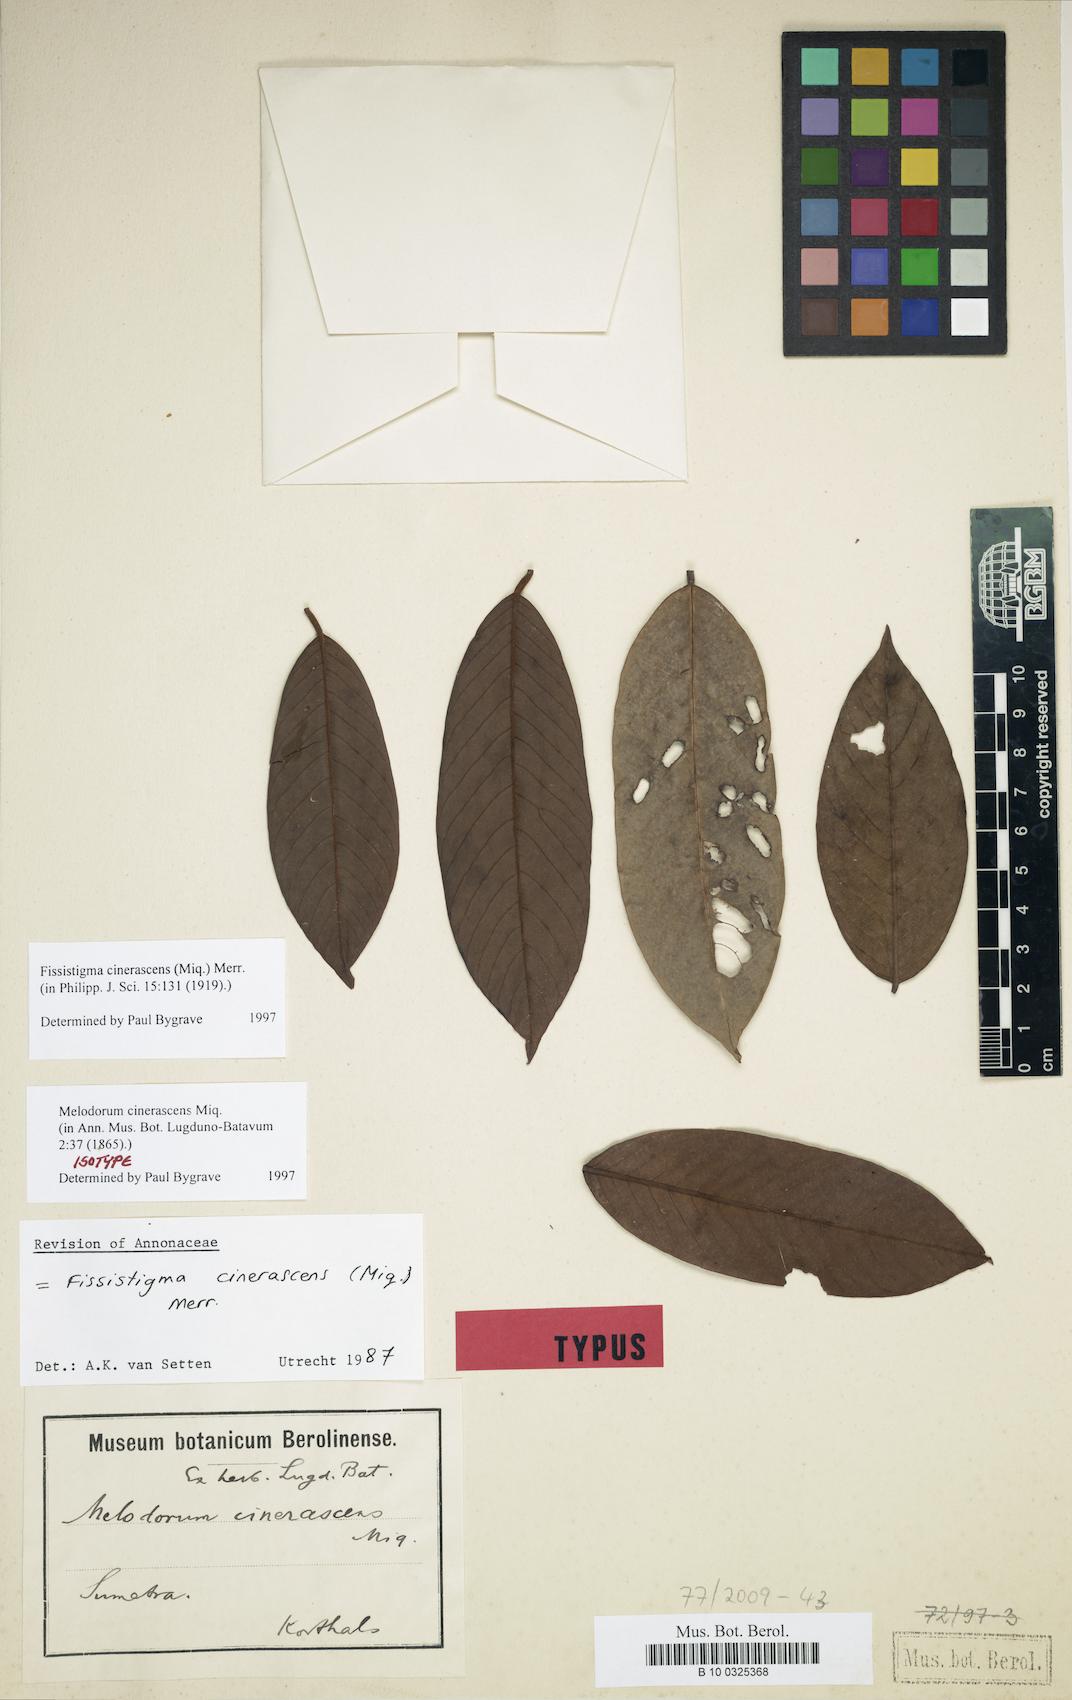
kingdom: Plantae
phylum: Tracheophyta
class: Magnoliopsida
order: Magnoliales
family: Annonaceae
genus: Fissistigma
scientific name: Fissistigma cinerascens
